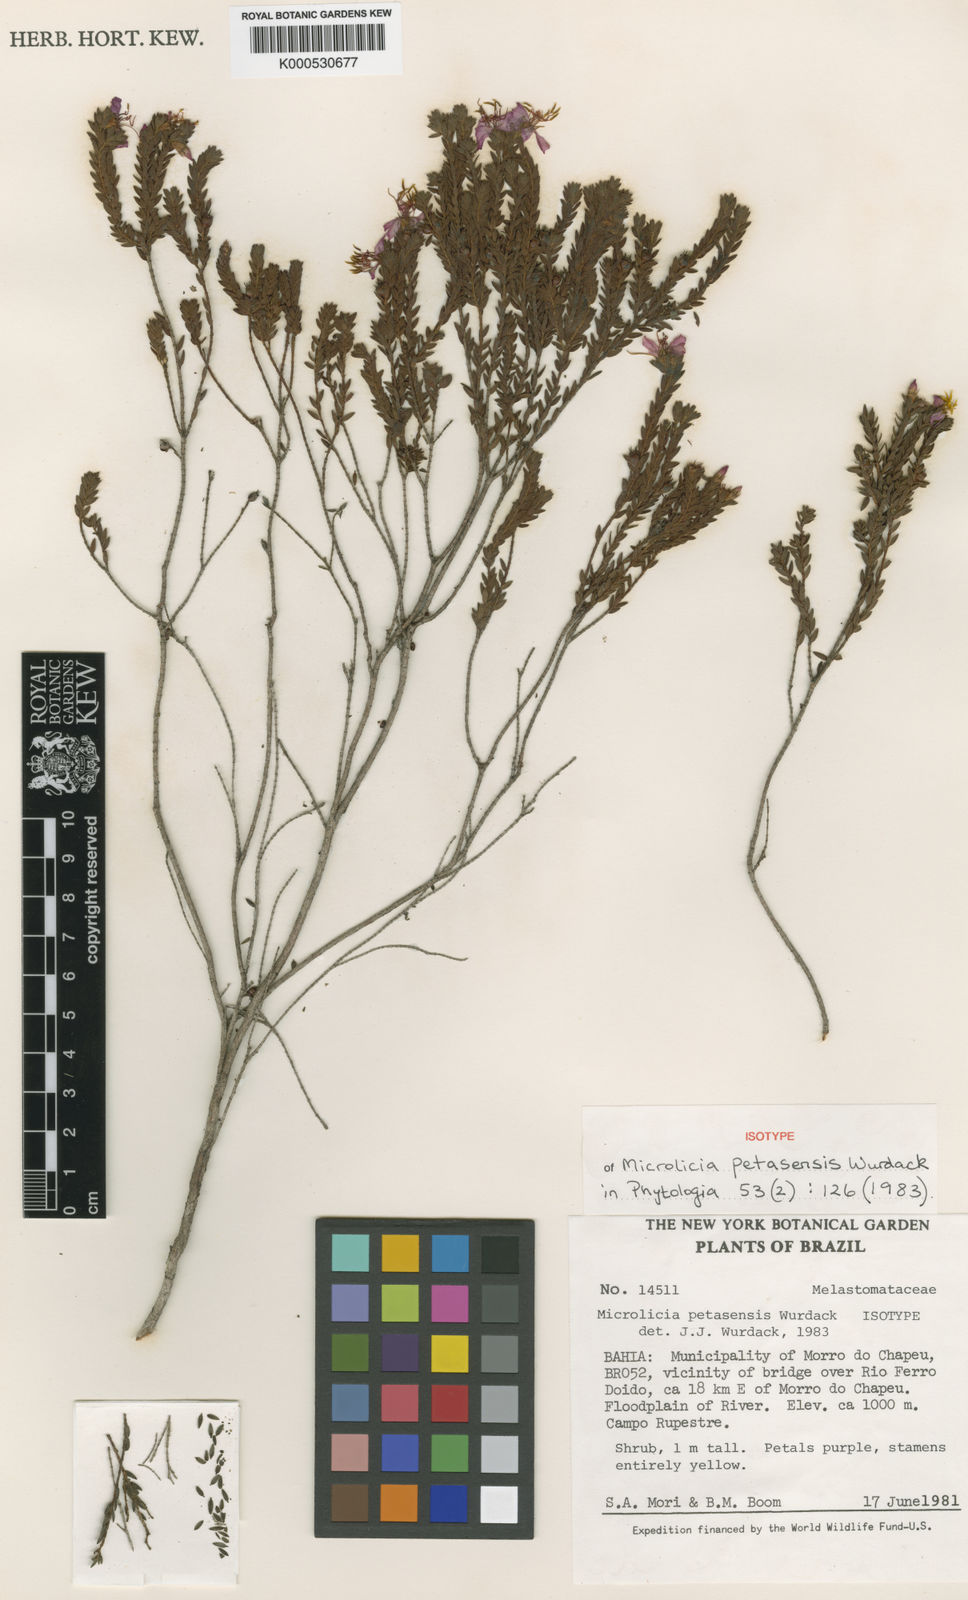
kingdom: Plantae
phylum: Tracheophyta
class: Magnoliopsida
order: Myrtales
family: Melastomataceae
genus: Microlicia
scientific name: Microlicia petasensis
